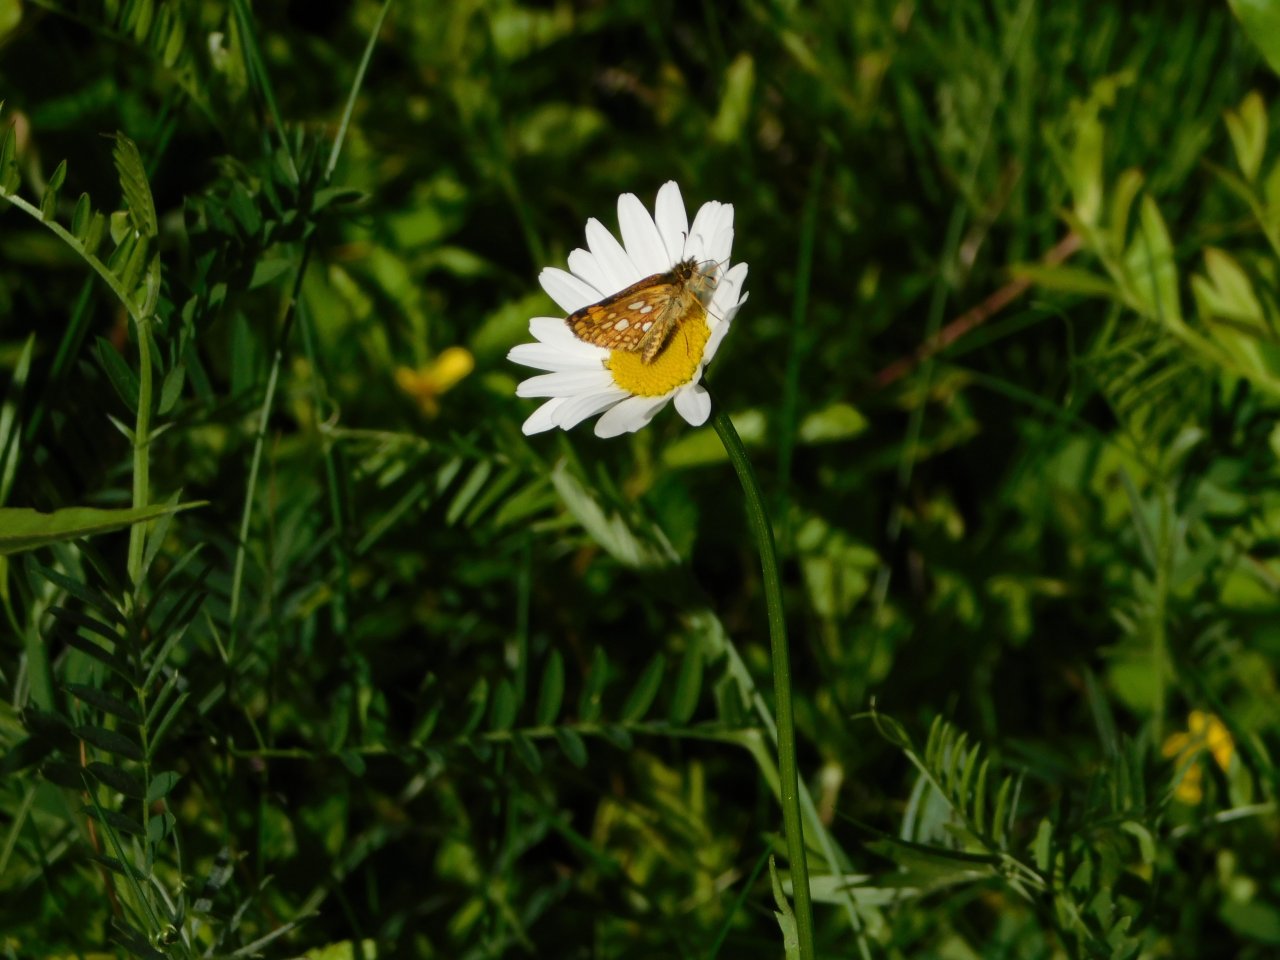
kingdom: Animalia
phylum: Arthropoda
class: Insecta
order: Lepidoptera
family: Hesperiidae
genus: Carterocephalus
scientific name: Carterocephalus palaemon
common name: Chequered Skipper
